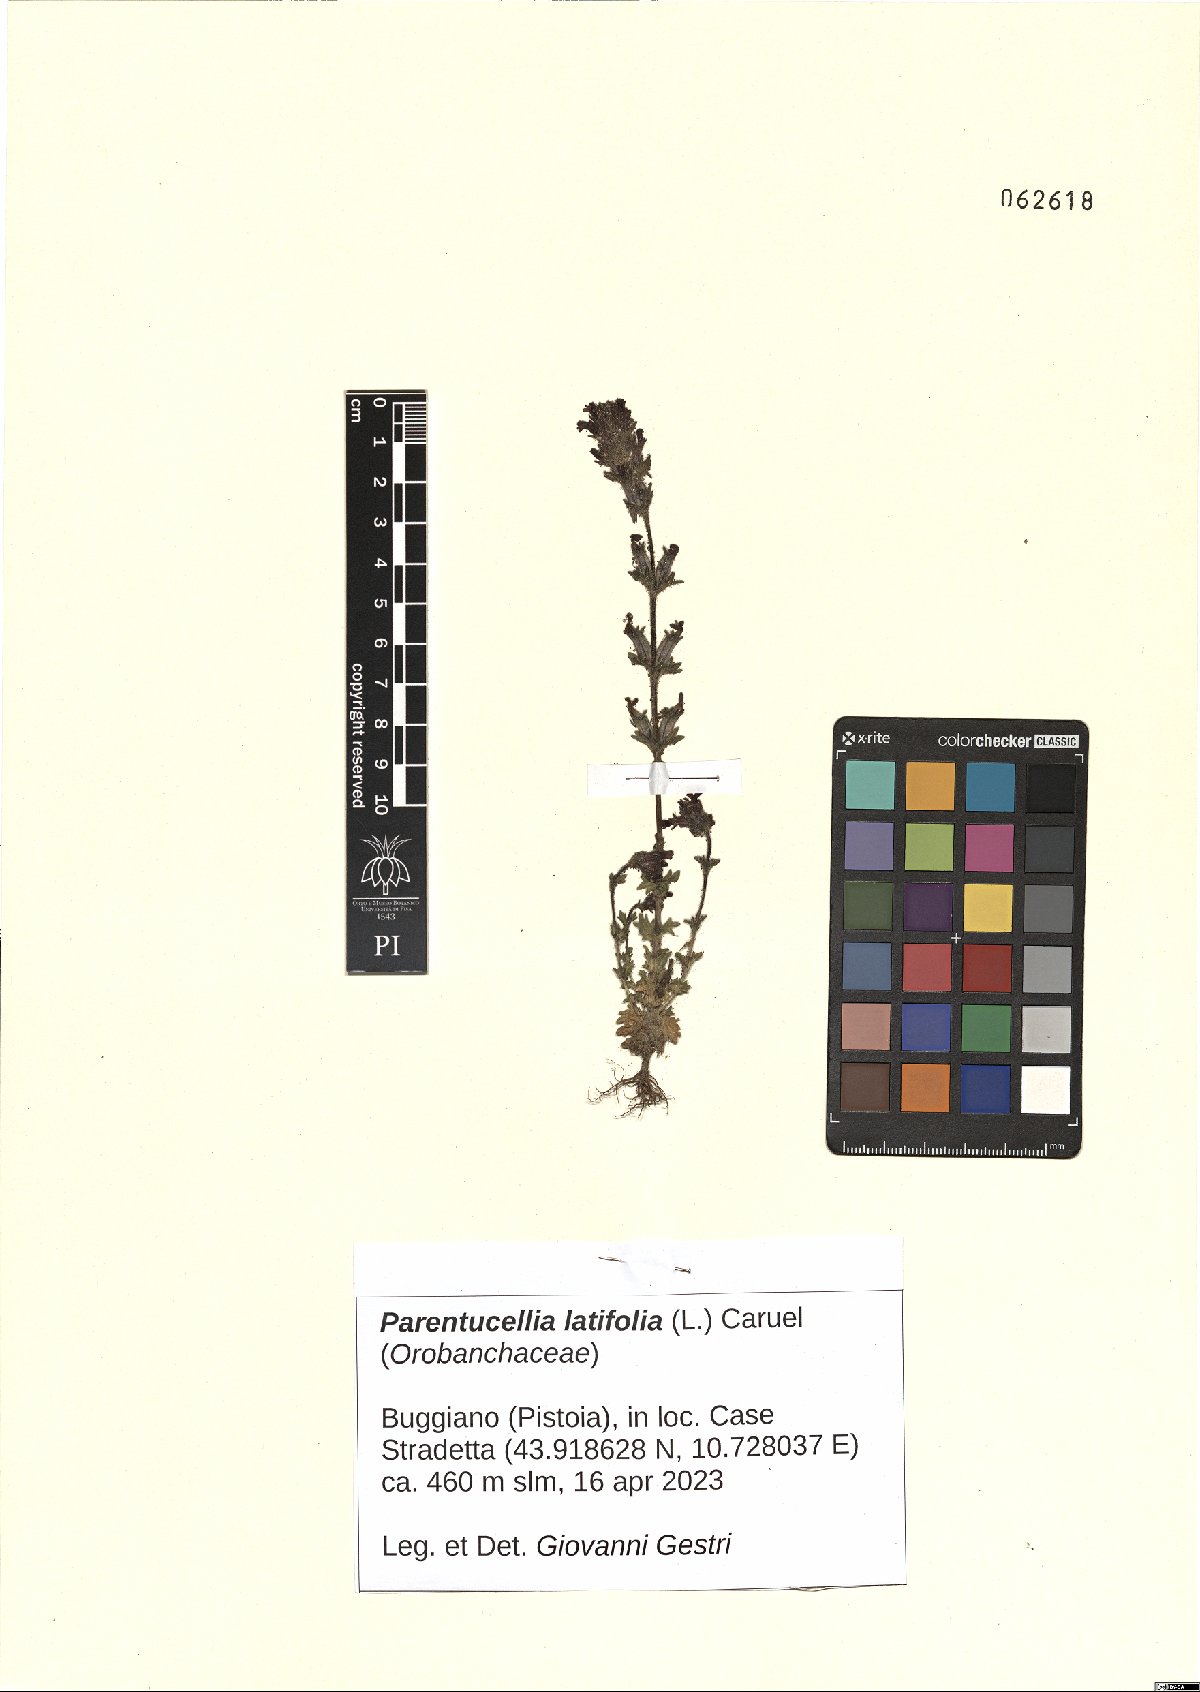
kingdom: Plantae
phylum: Tracheophyta
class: Magnoliopsida
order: Lamiales
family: Orobanchaceae
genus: Parentucellia
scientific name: Parentucellia latifolia
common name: Broadleaf glandweed
